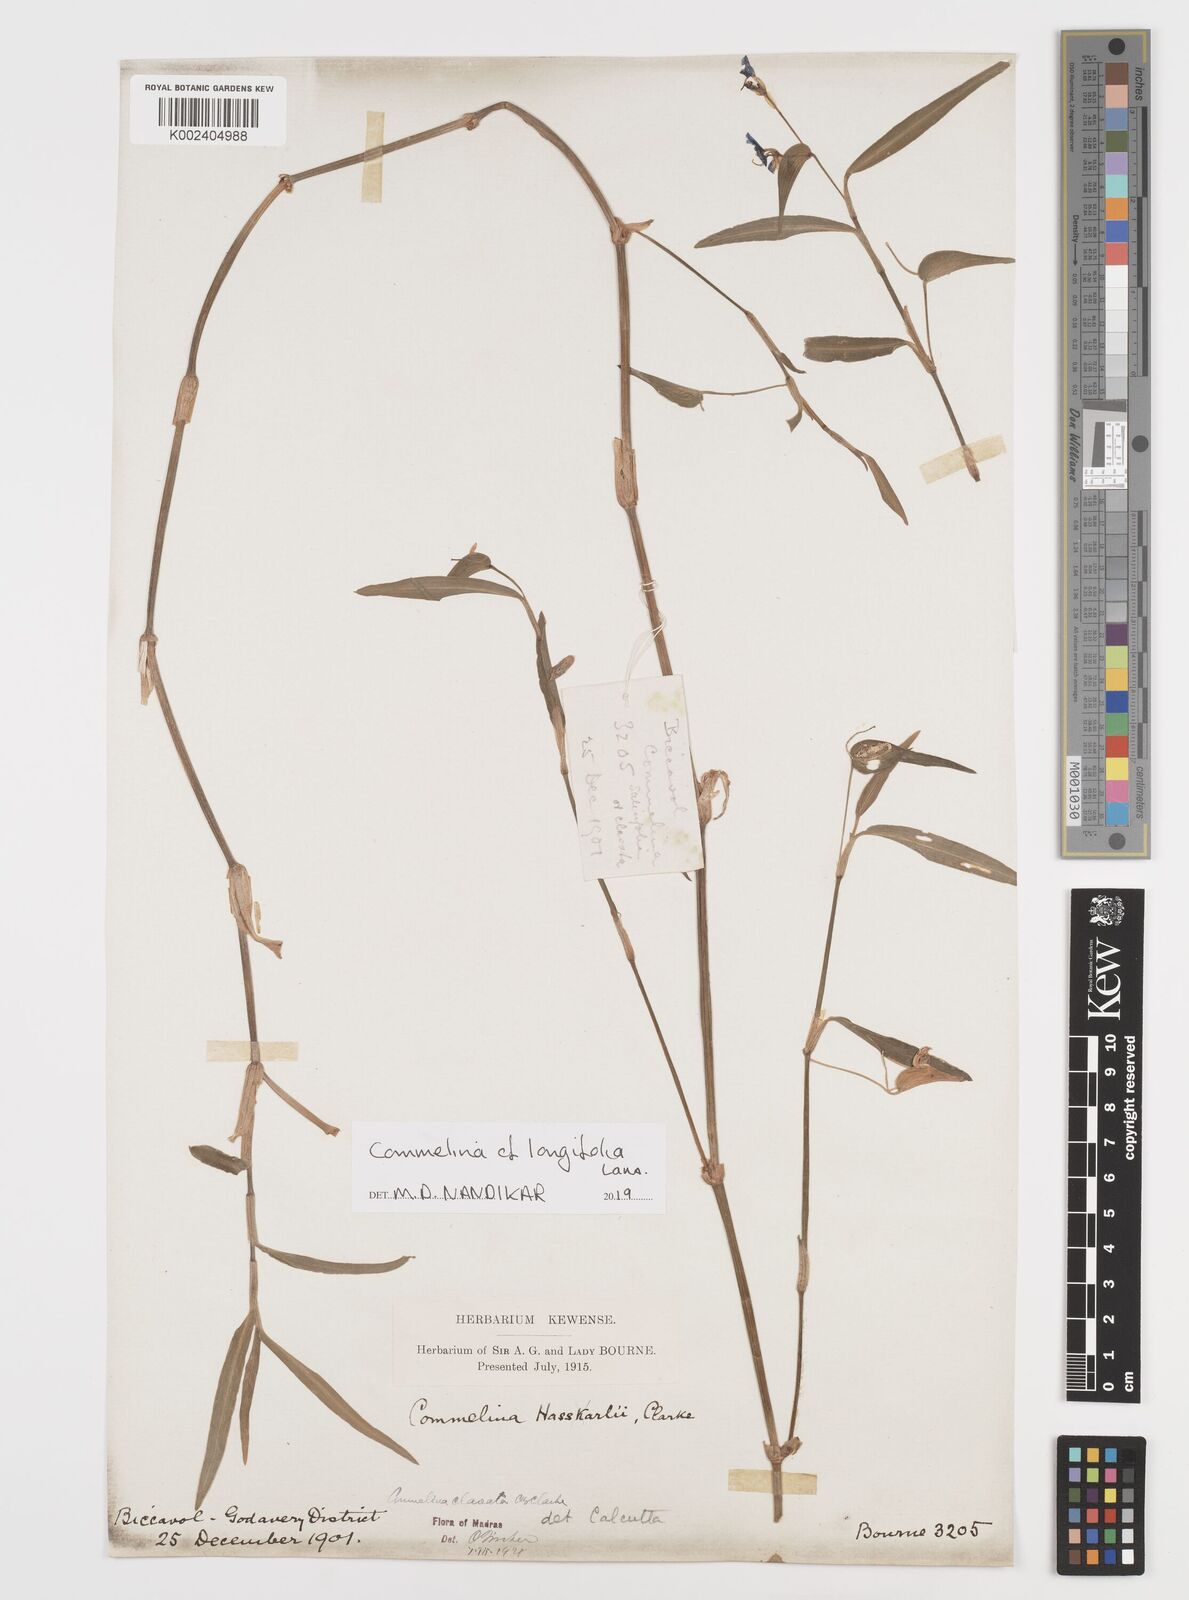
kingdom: Plantae
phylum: Tracheophyta
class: Liliopsida
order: Commelinales
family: Commelinaceae
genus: Commelina
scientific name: Commelina undulata
